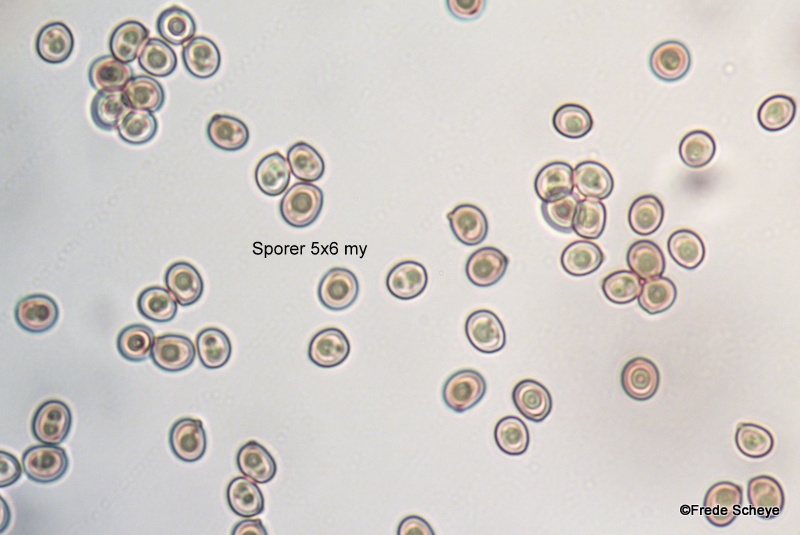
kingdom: Fungi
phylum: Basidiomycota
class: Agaricomycetes
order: Agaricales
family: Agaricaceae
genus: Agaricus
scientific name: Agaricus bitorquis
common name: vej-champignon
